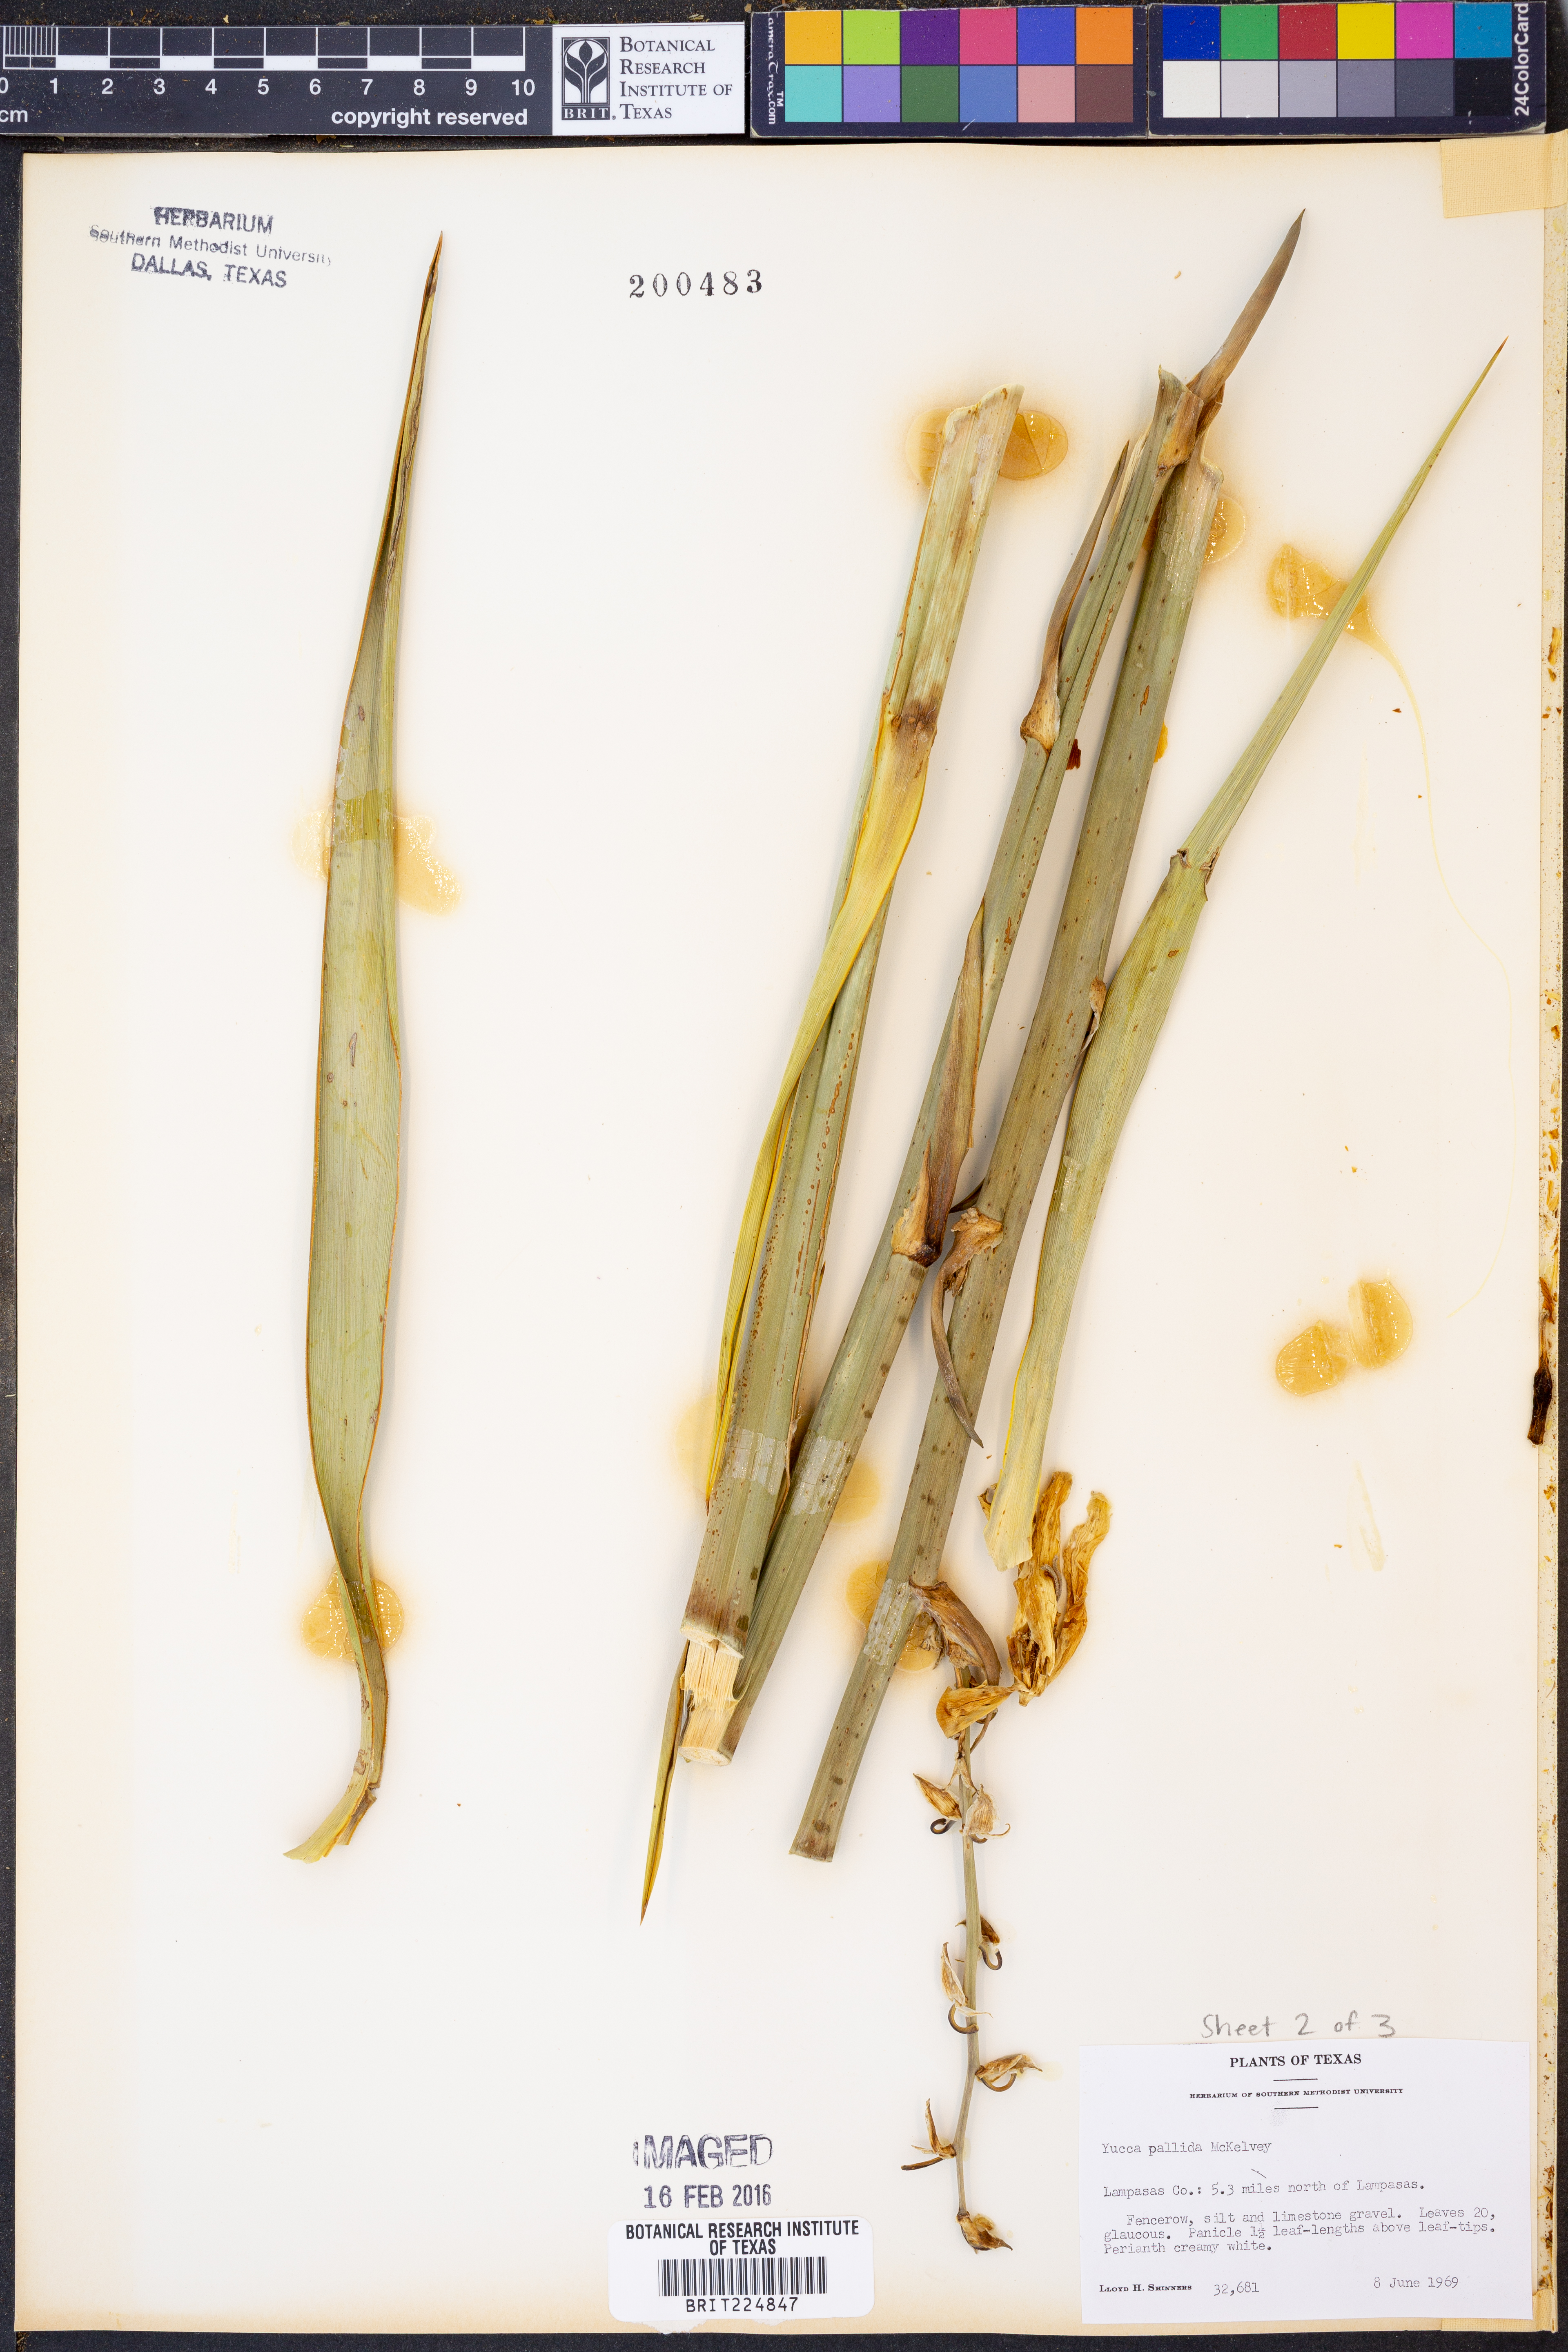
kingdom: Plantae
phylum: Tracheophyta
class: Liliopsida
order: Asparagales
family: Asparagaceae
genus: Yucca
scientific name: Yucca pallida
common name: Pale leaf yucca
